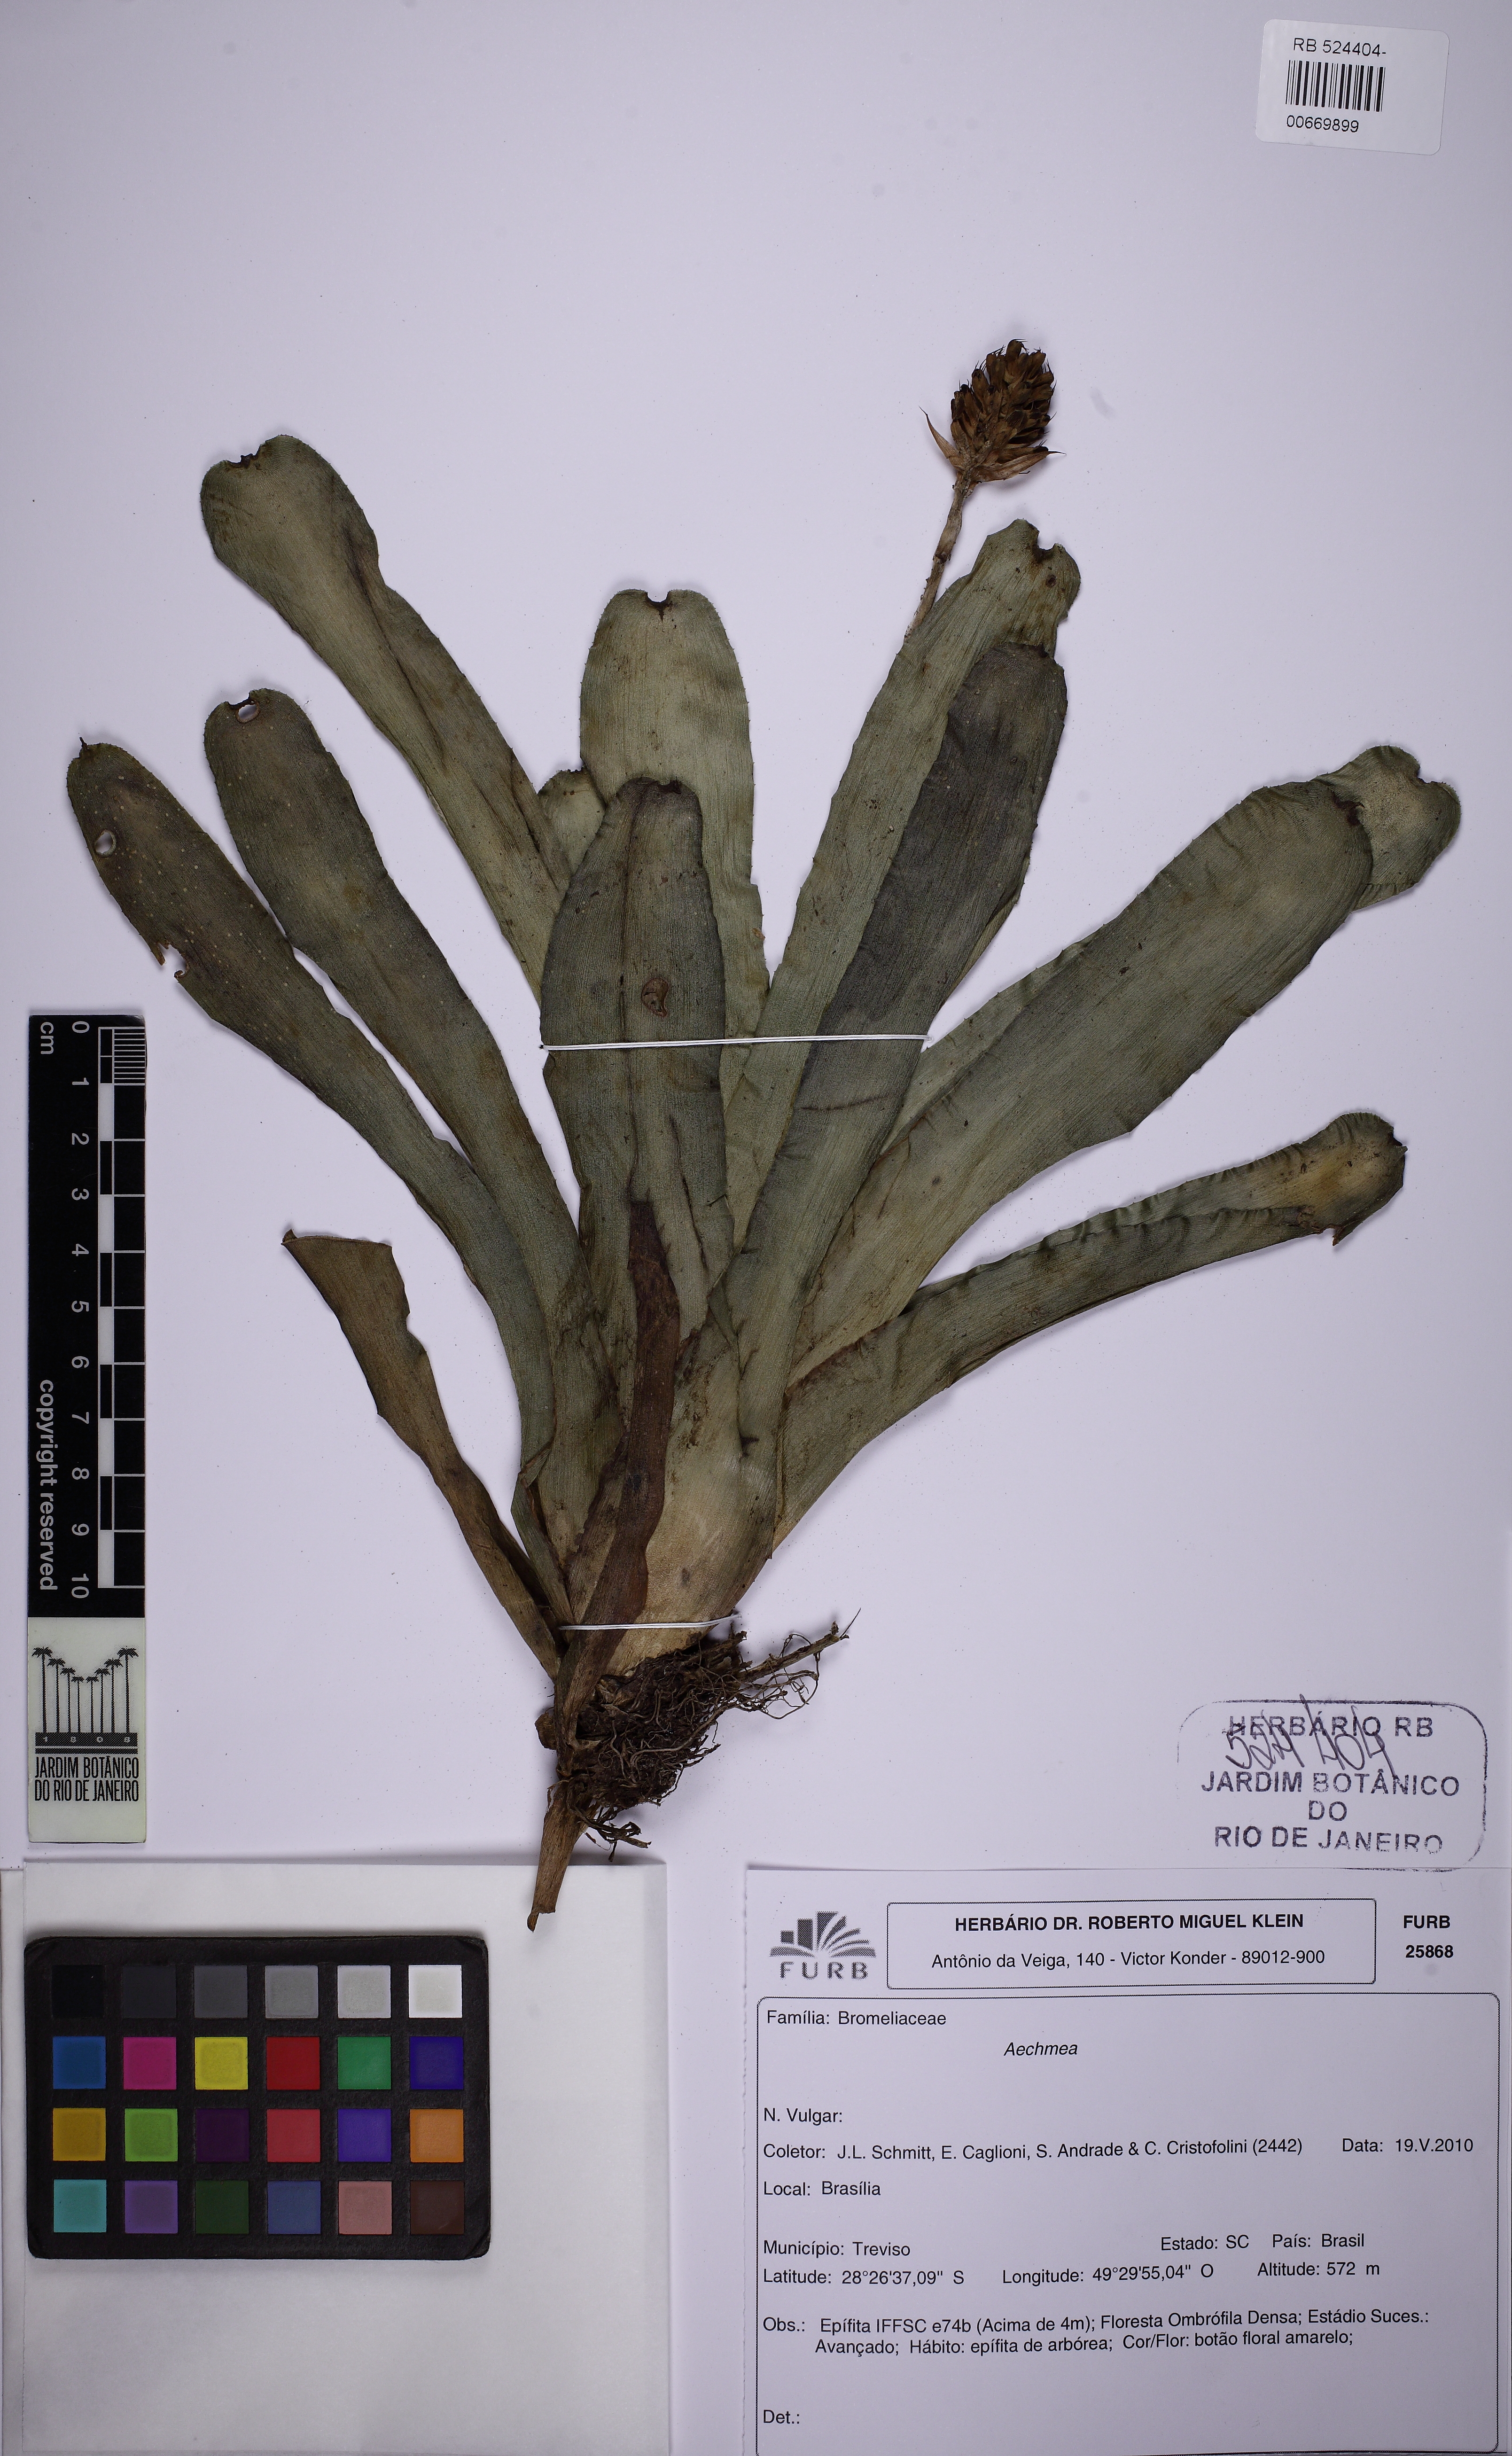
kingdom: Plantae
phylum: Tracheophyta
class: Liliopsida
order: Poales
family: Bromeliaceae
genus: Aechmea
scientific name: Aechmea calyculata
